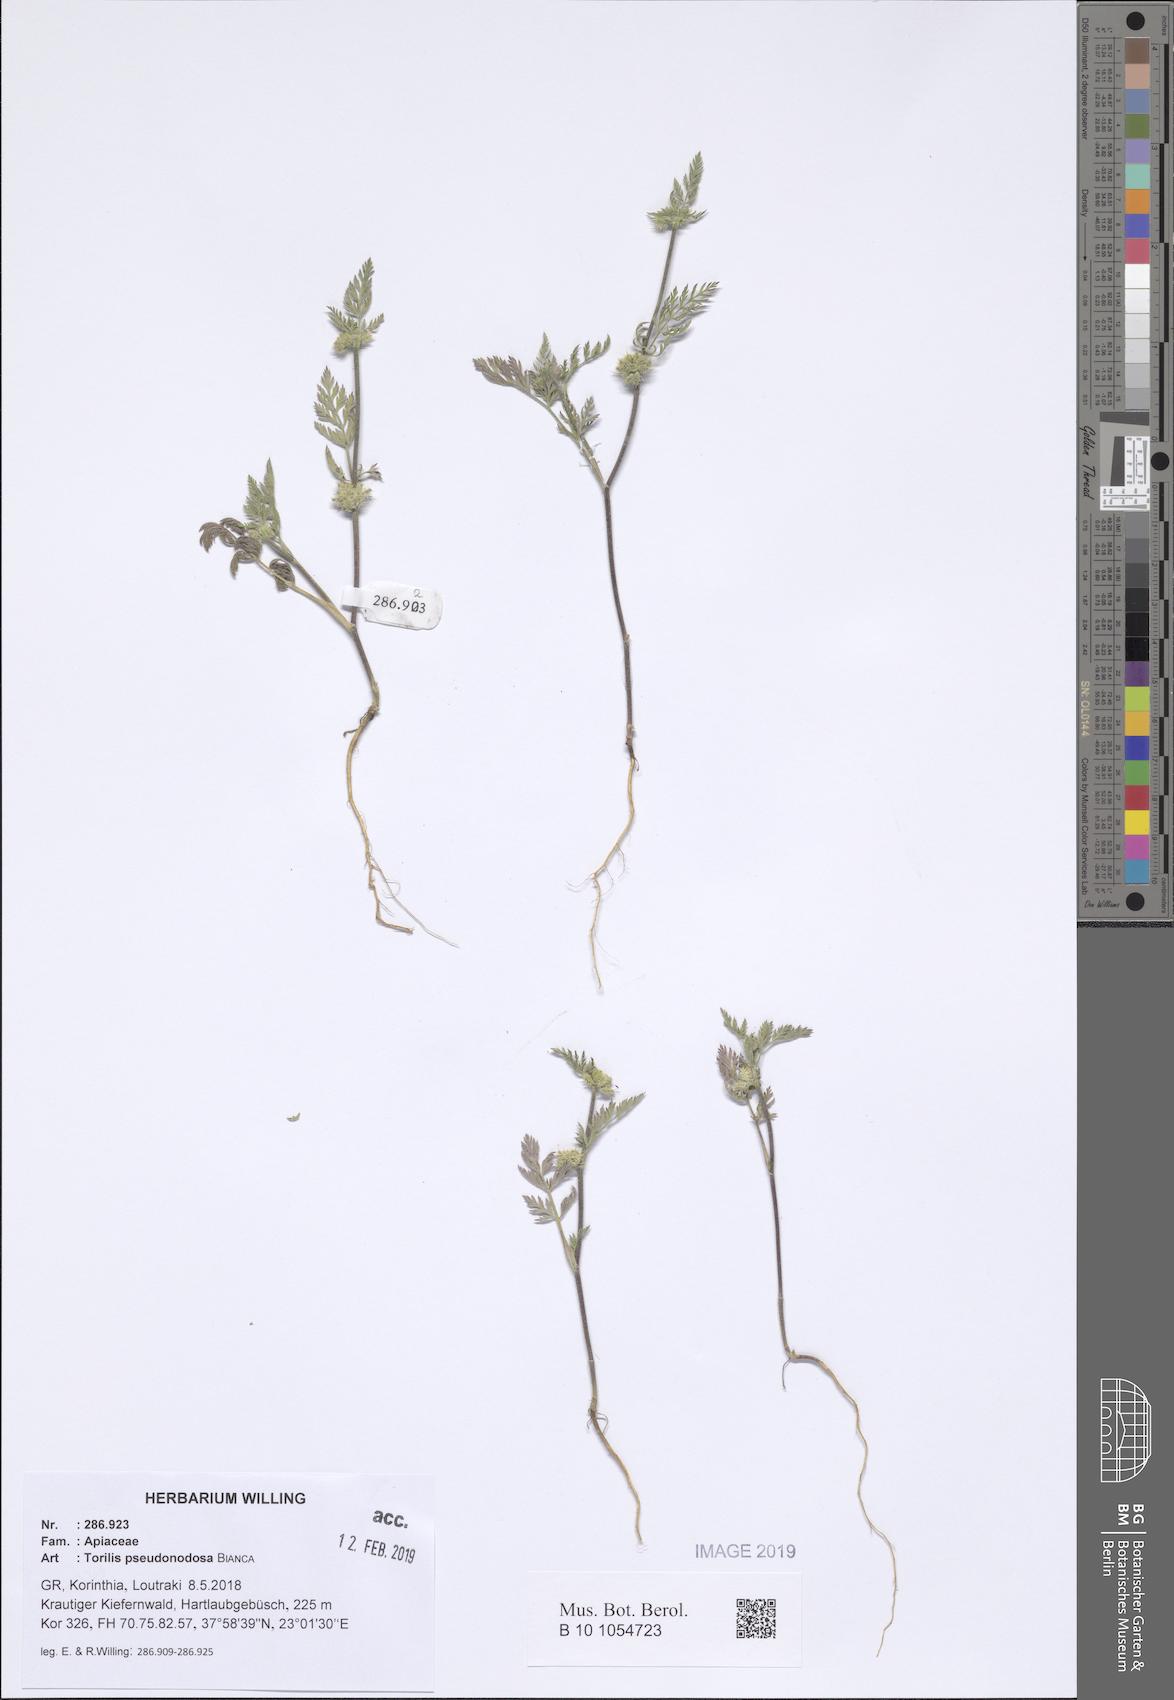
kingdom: Plantae
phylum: Tracheophyta
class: Magnoliopsida
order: Apiales
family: Apiaceae
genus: Torilis
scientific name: Torilis pseudonodosa
